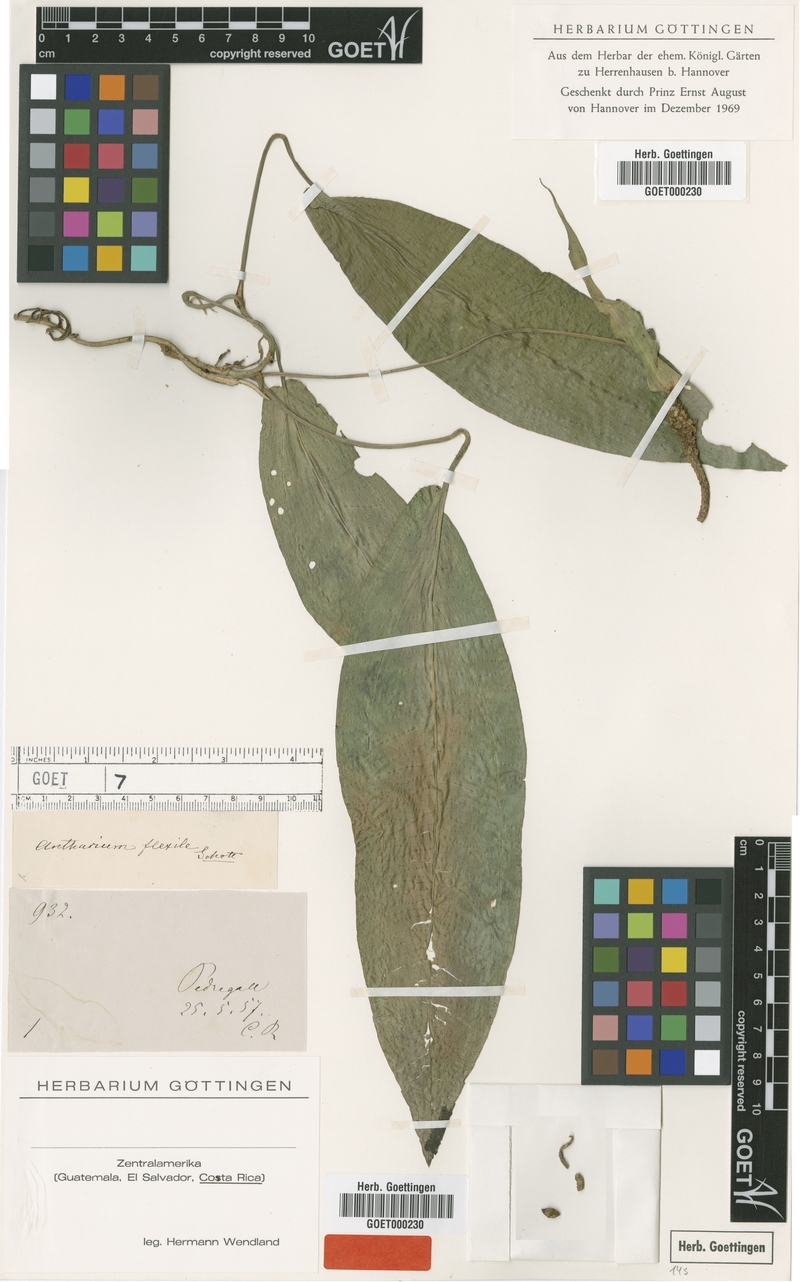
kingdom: Plantae
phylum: Tracheophyta
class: Liliopsida
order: Alismatales
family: Araceae
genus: Anthurium
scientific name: Anthurium flexile
